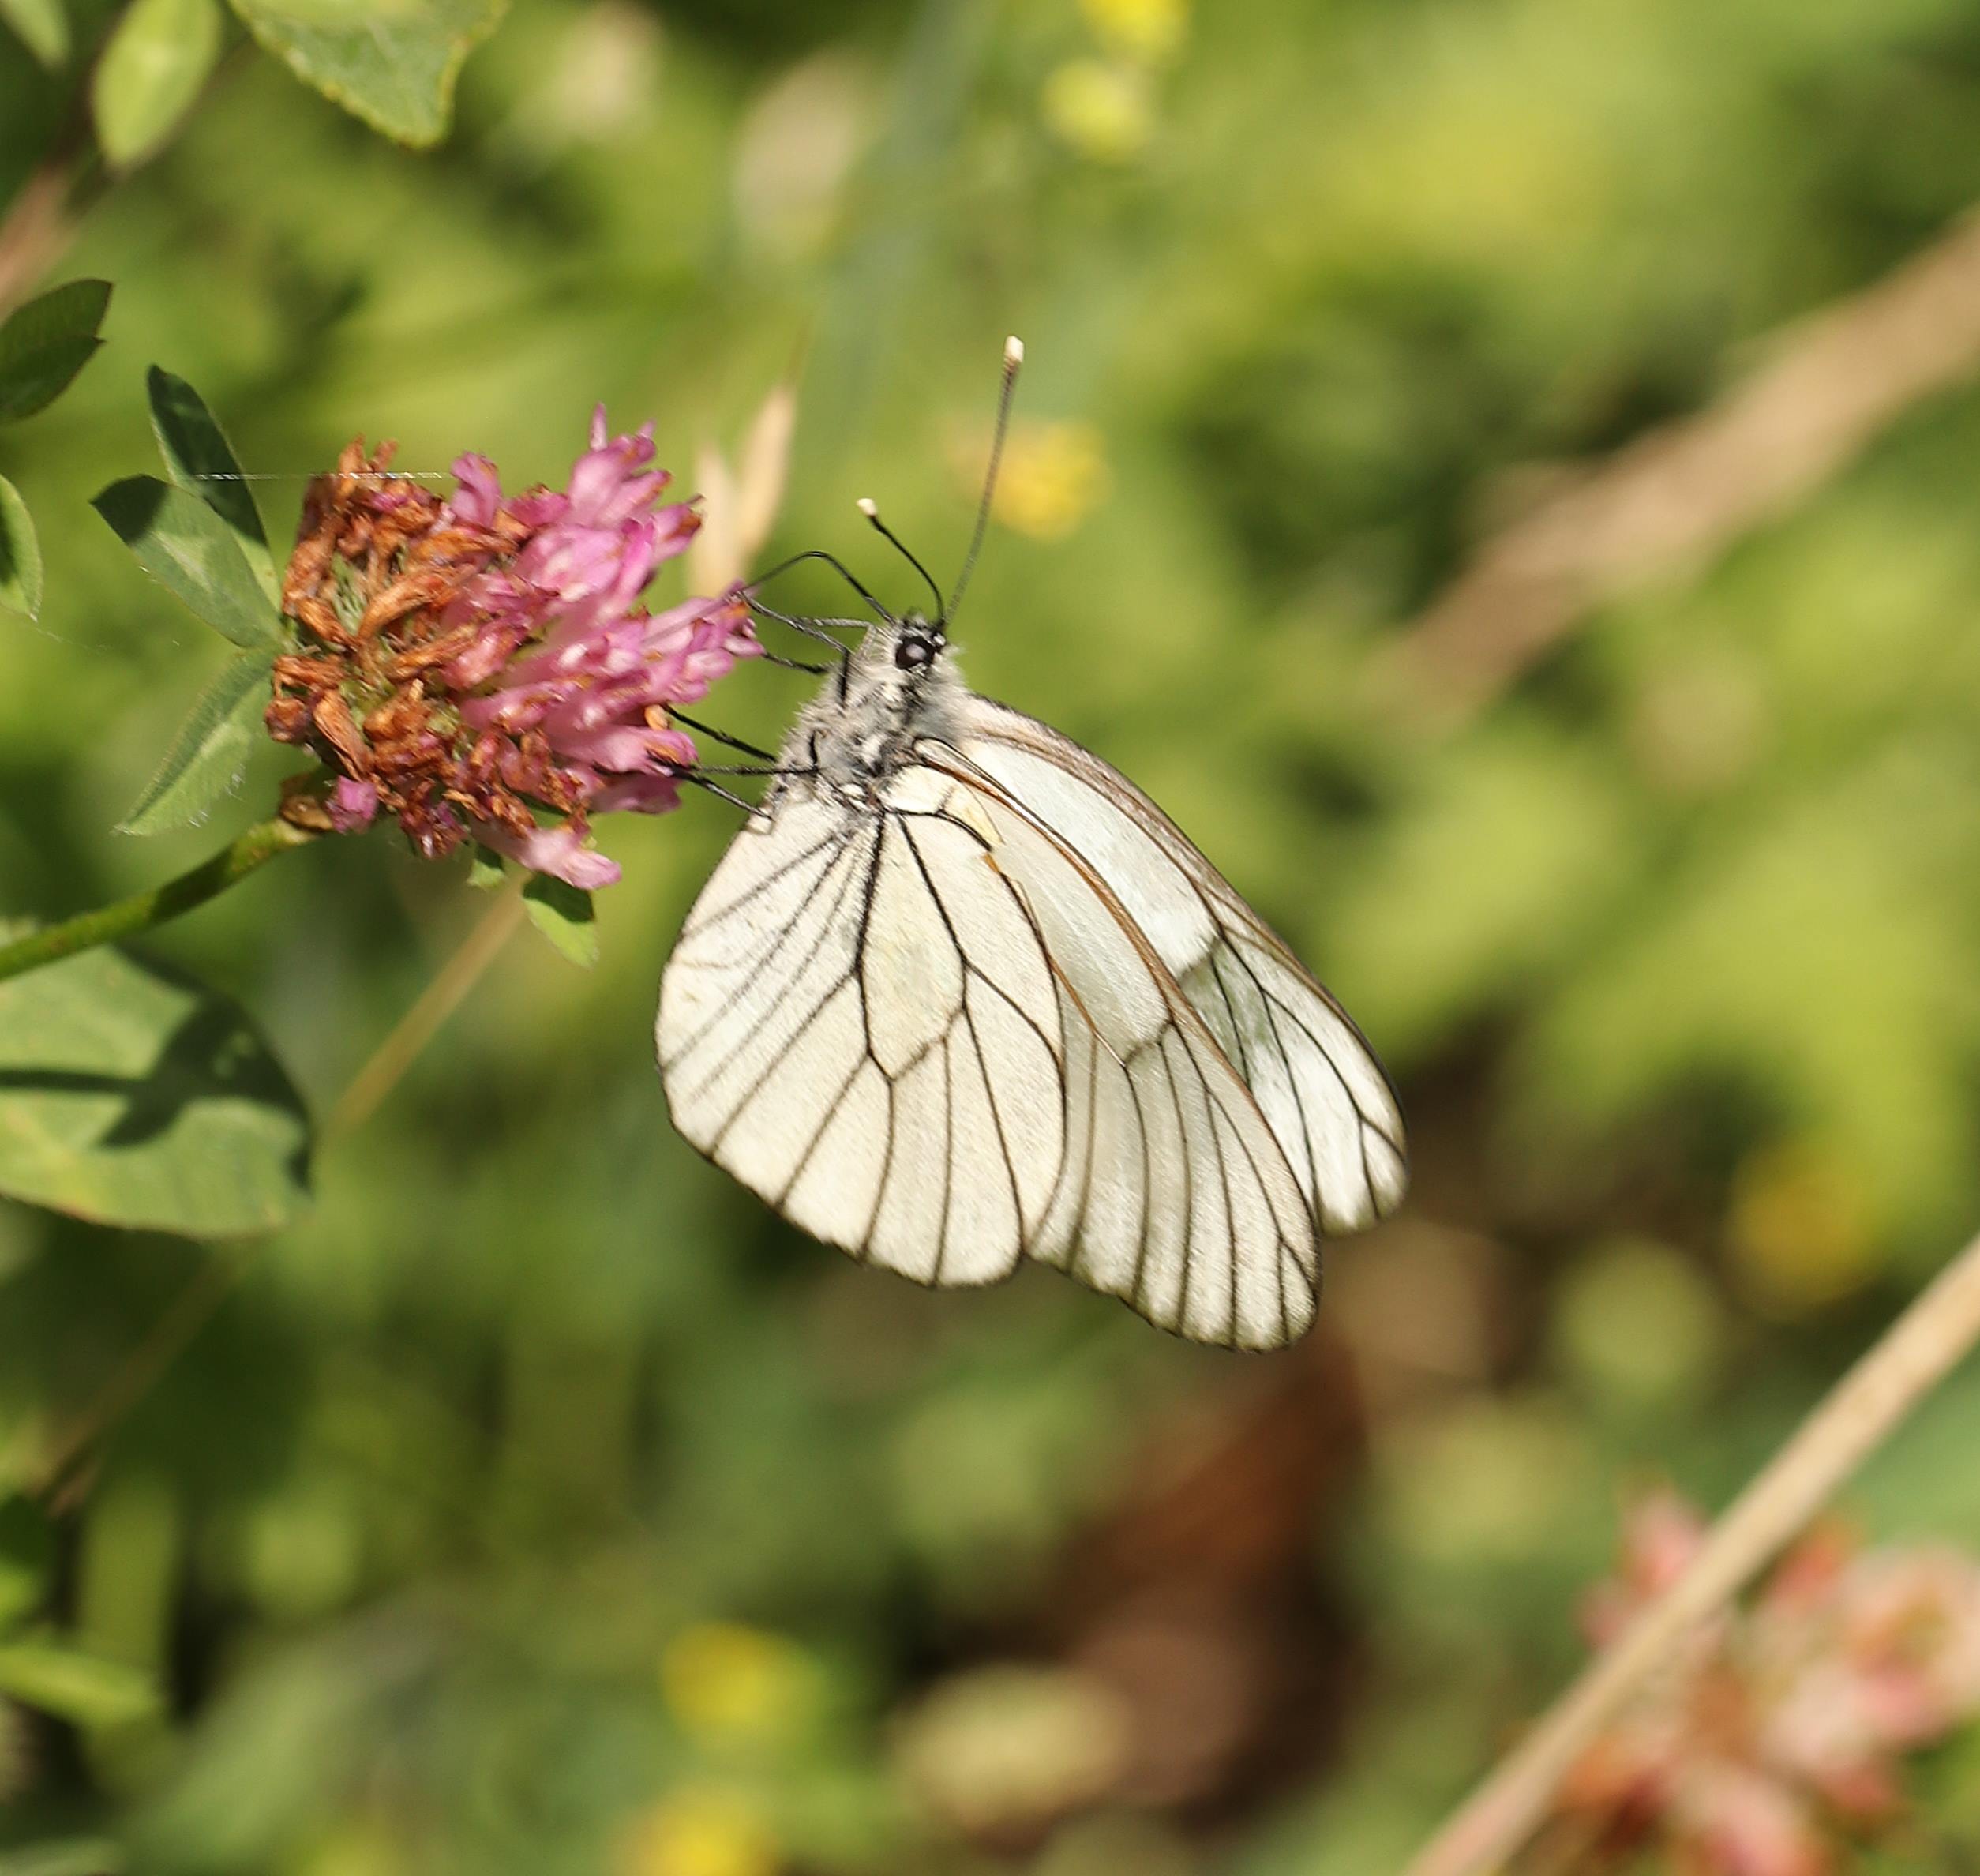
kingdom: Animalia
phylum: Arthropoda
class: Insecta
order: Lepidoptera
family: Pieridae
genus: Aporia
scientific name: Aporia crataegi
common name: Sortåret hvidvinge
